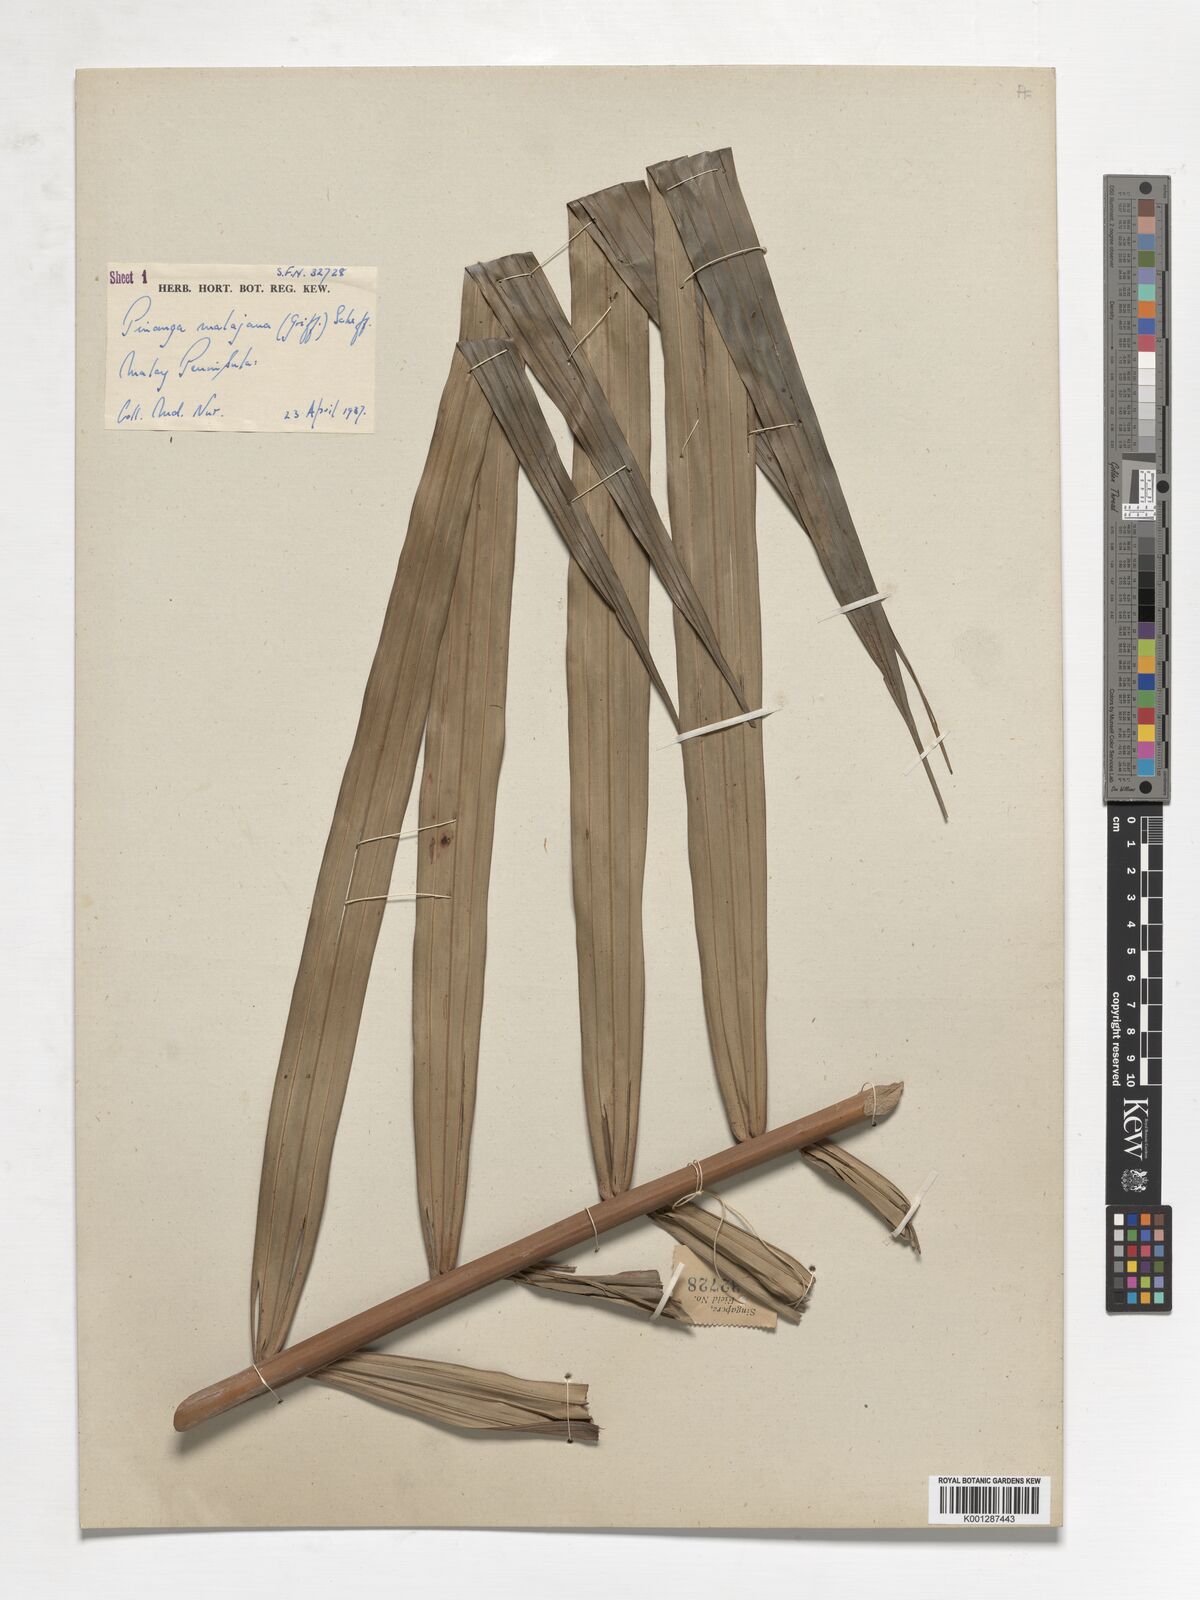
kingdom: Plantae
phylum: Tracheophyta
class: Liliopsida
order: Arecales
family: Arecaceae
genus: Pinanga
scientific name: Pinanga malaiana
